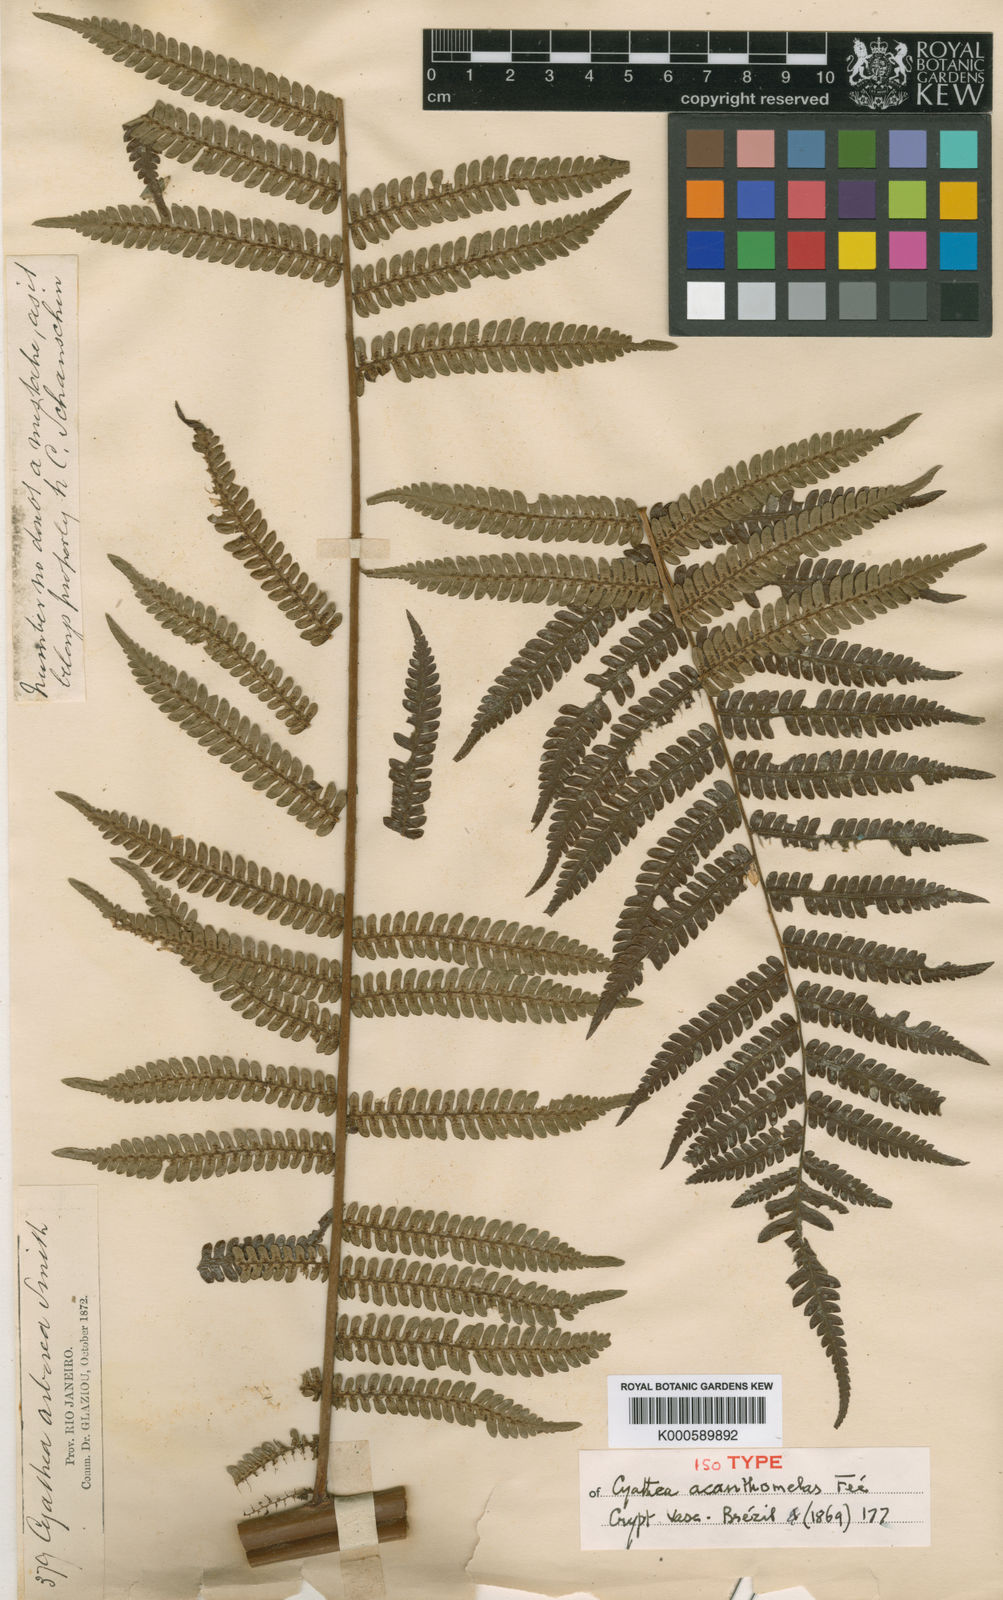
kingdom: Plantae
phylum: Tracheophyta
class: Polypodiopsida
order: Cyatheales
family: Cyatheaceae
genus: Alsophila
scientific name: Alsophila sternbergii
